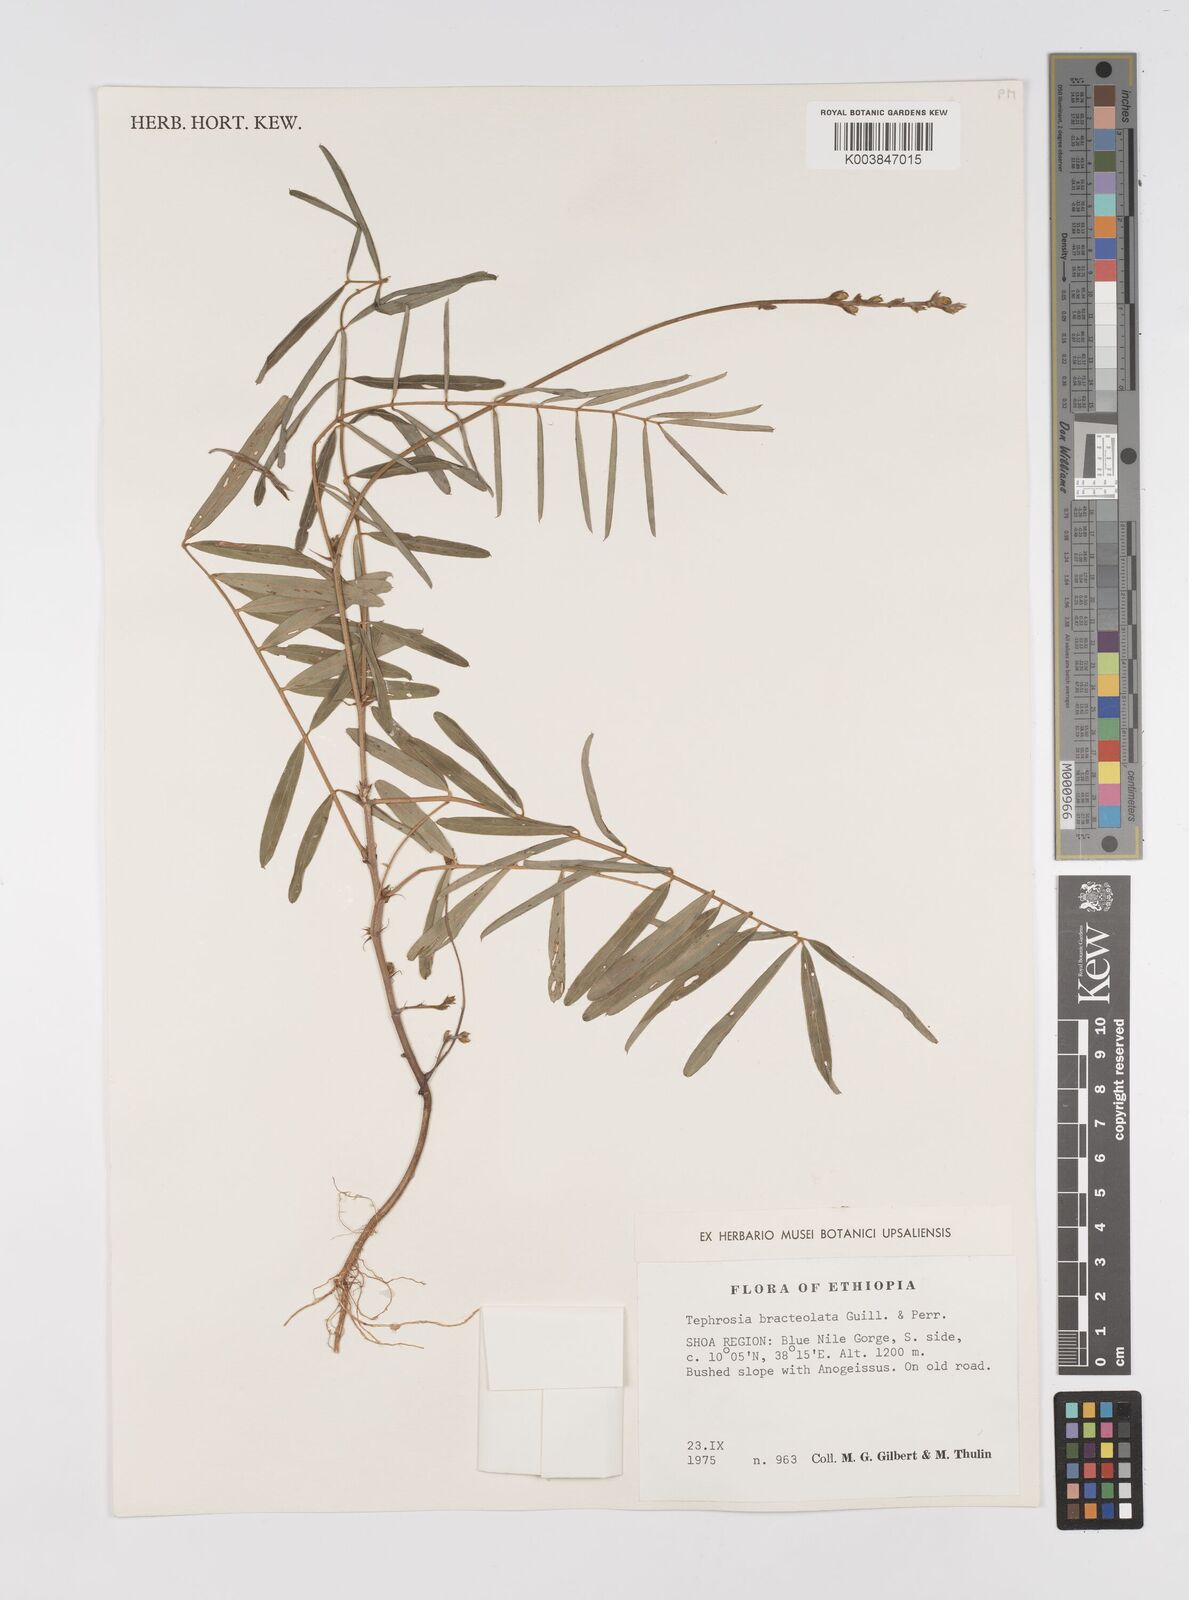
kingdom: Plantae
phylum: Tracheophyta
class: Magnoliopsida
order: Fabales
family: Fabaceae
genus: Tephrosia
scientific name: Tephrosia bracteolata
